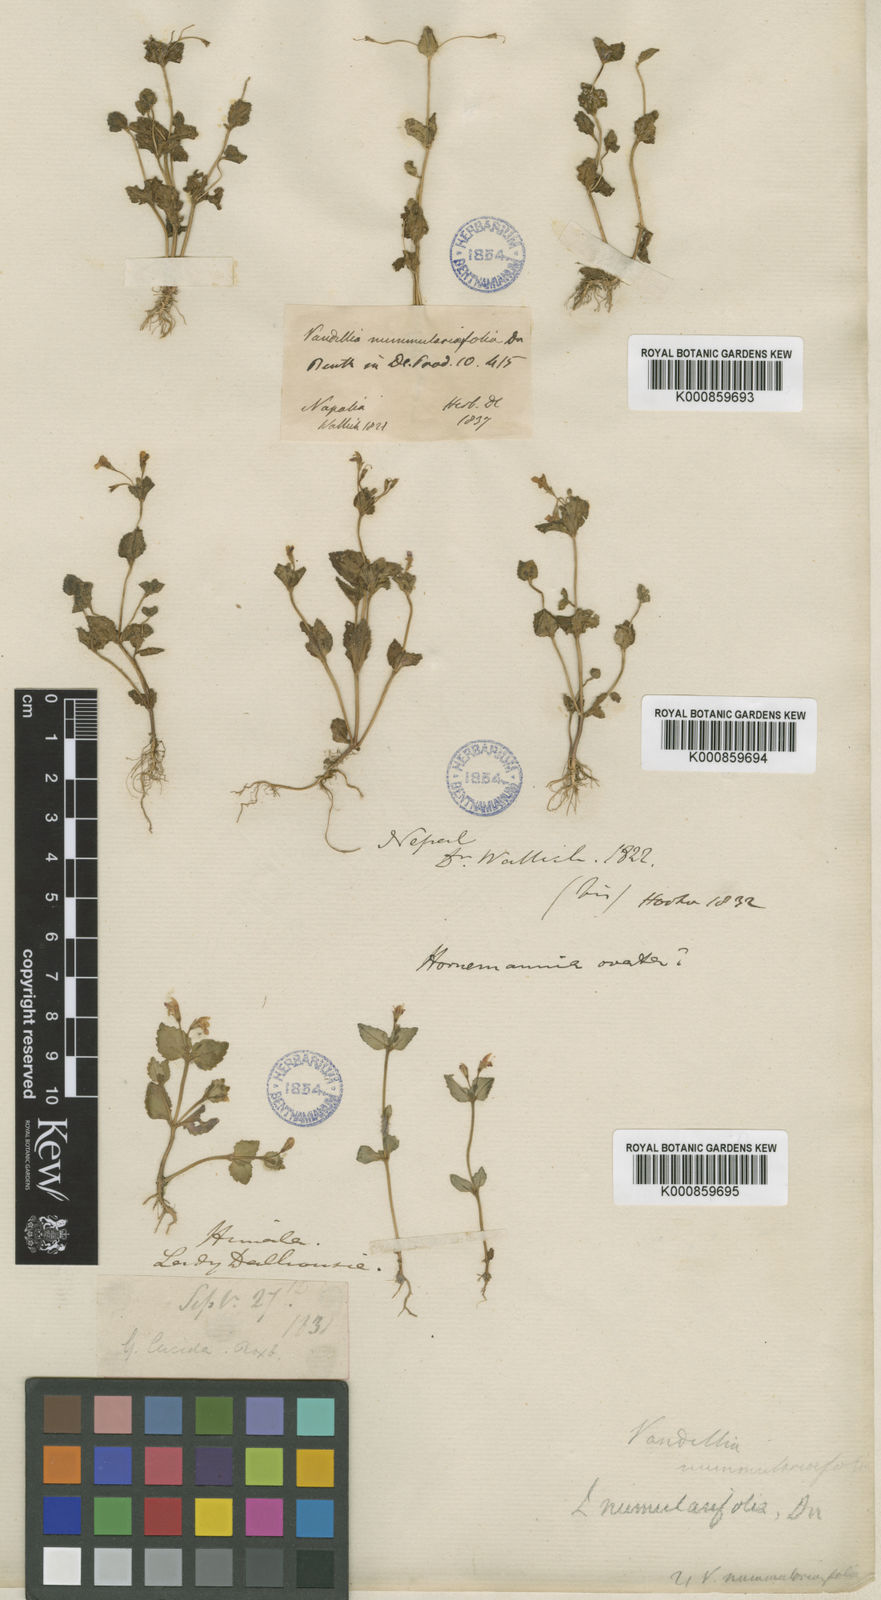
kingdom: Plantae
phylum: Tracheophyta
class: Magnoliopsida
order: Lamiales
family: Linderniaceae
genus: Craterostigma
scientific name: Craterostigma nummulariifolium
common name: False pimpernel
